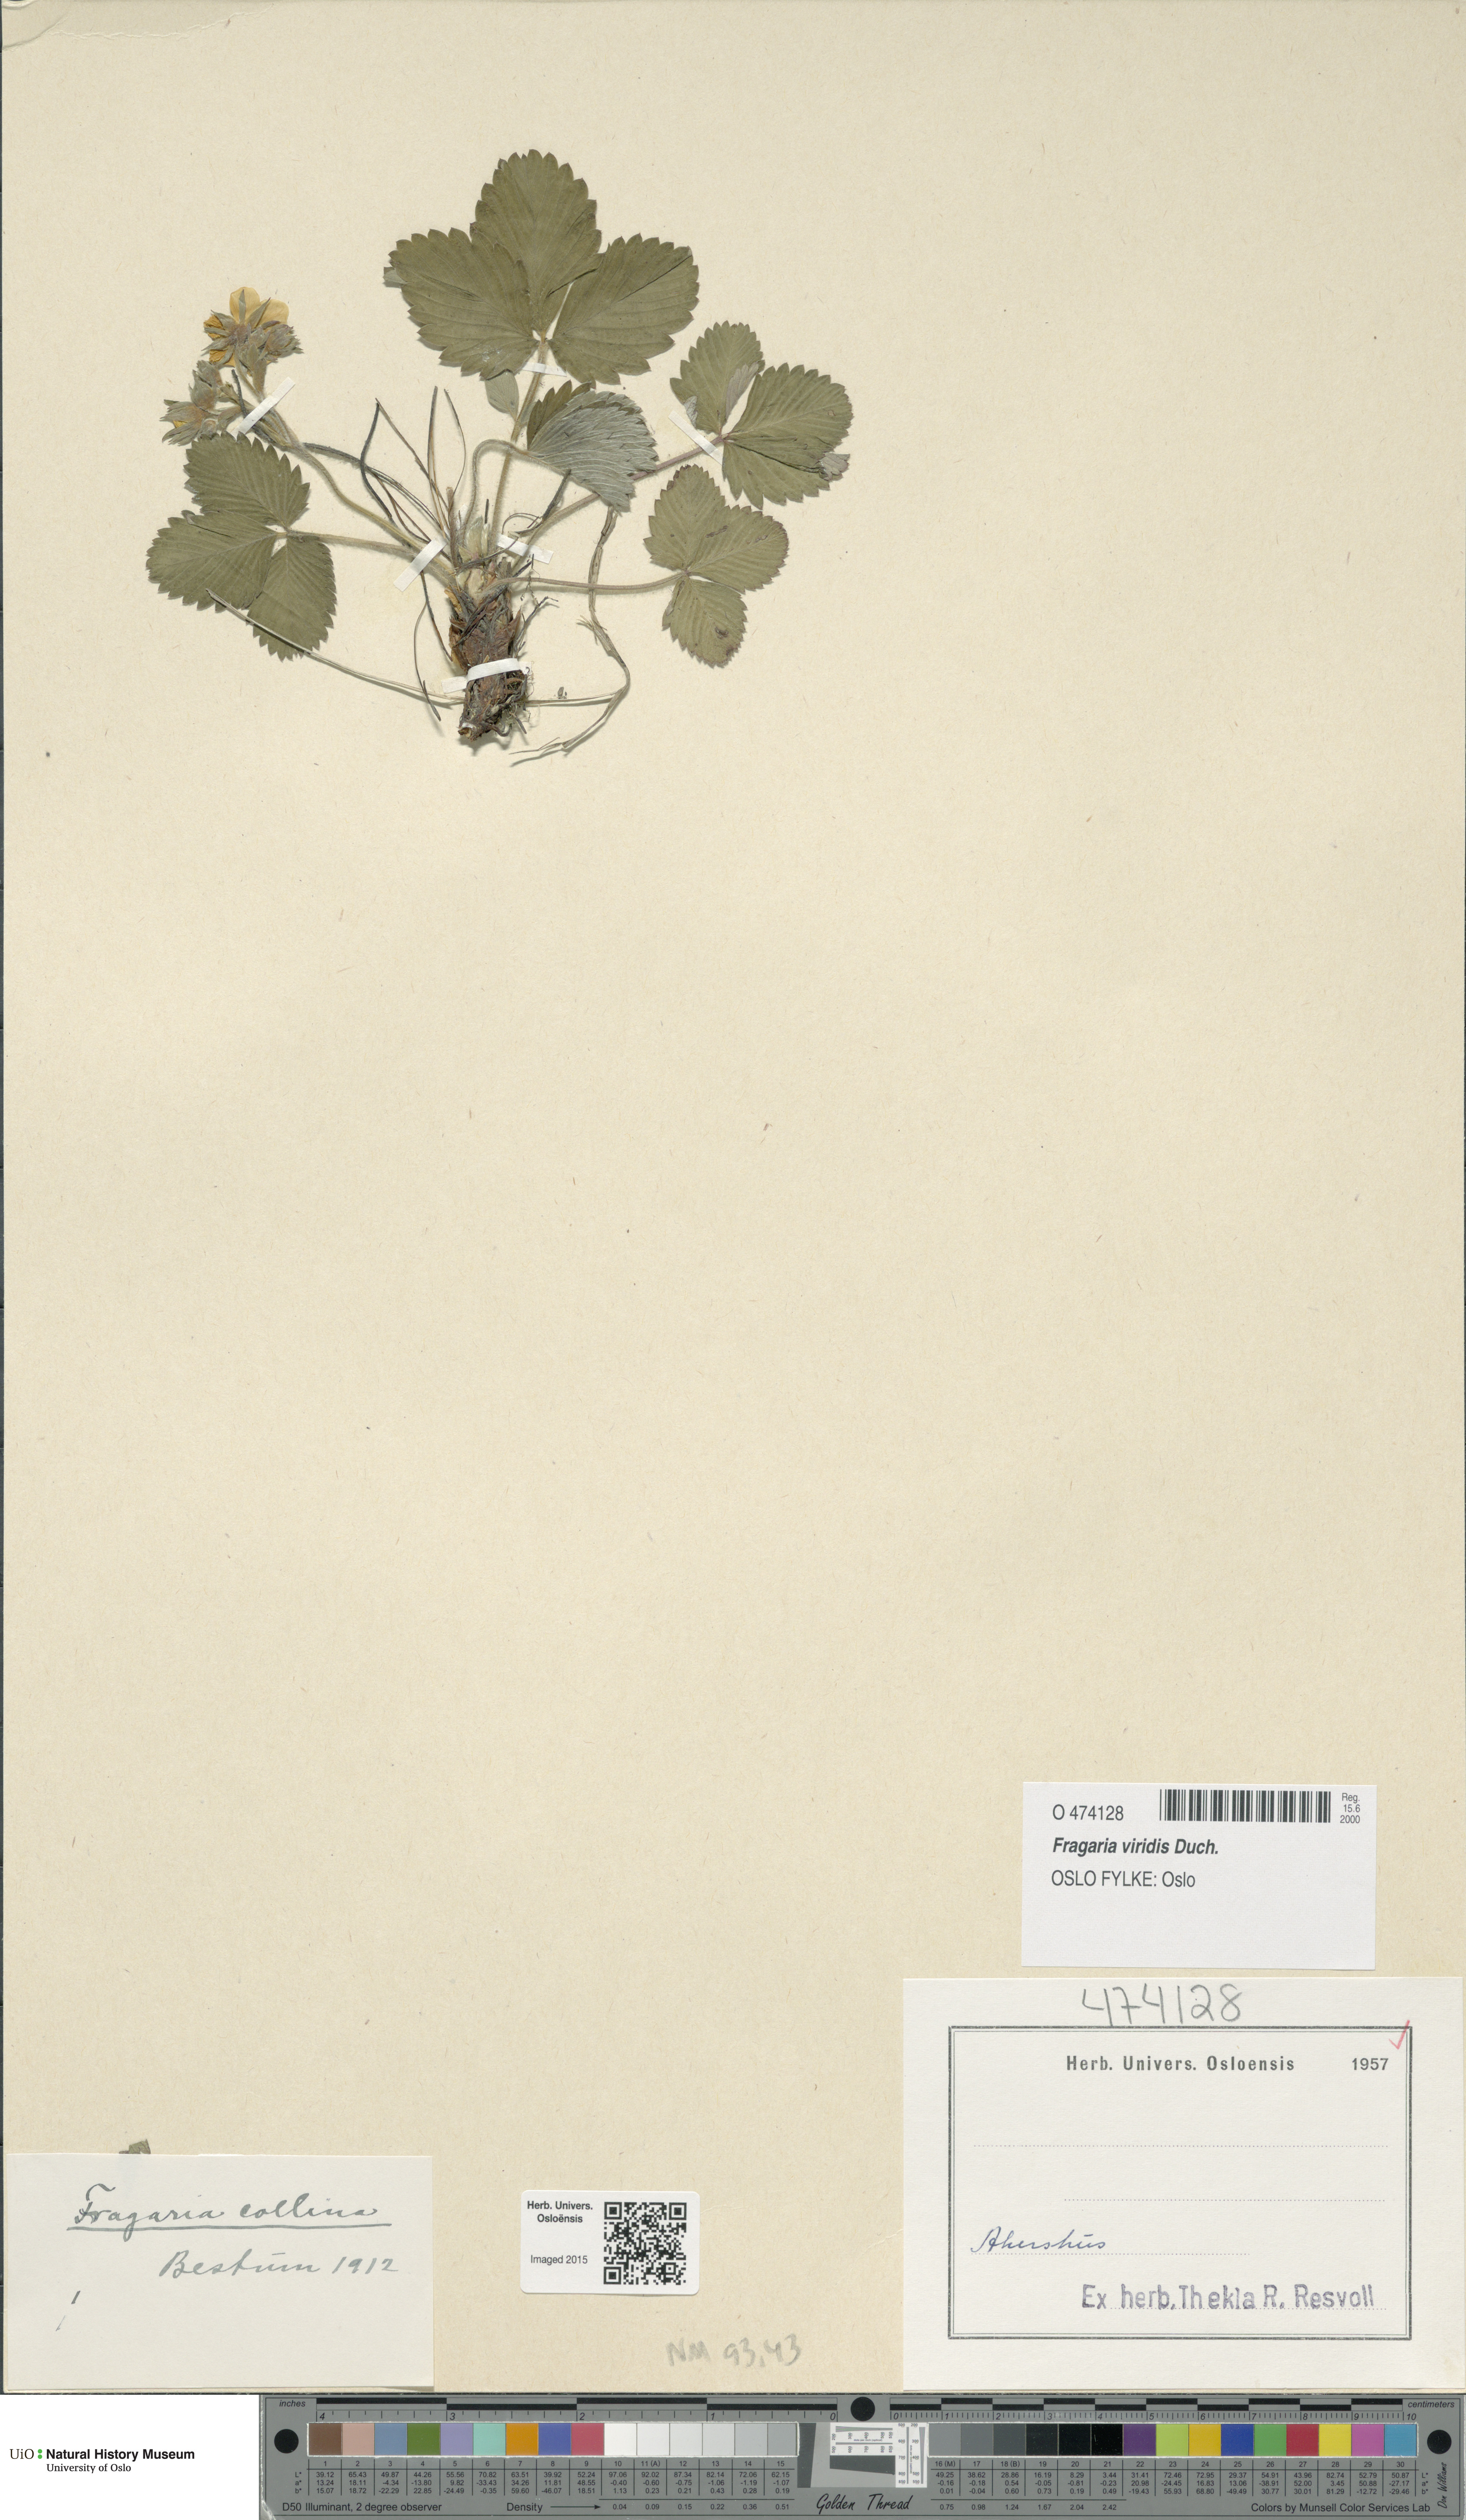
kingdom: Plantae
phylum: Tracheophyta
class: Magnoliopsida
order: Rosales
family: Rosaceae
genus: Fragaria
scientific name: Fragaria viridis
